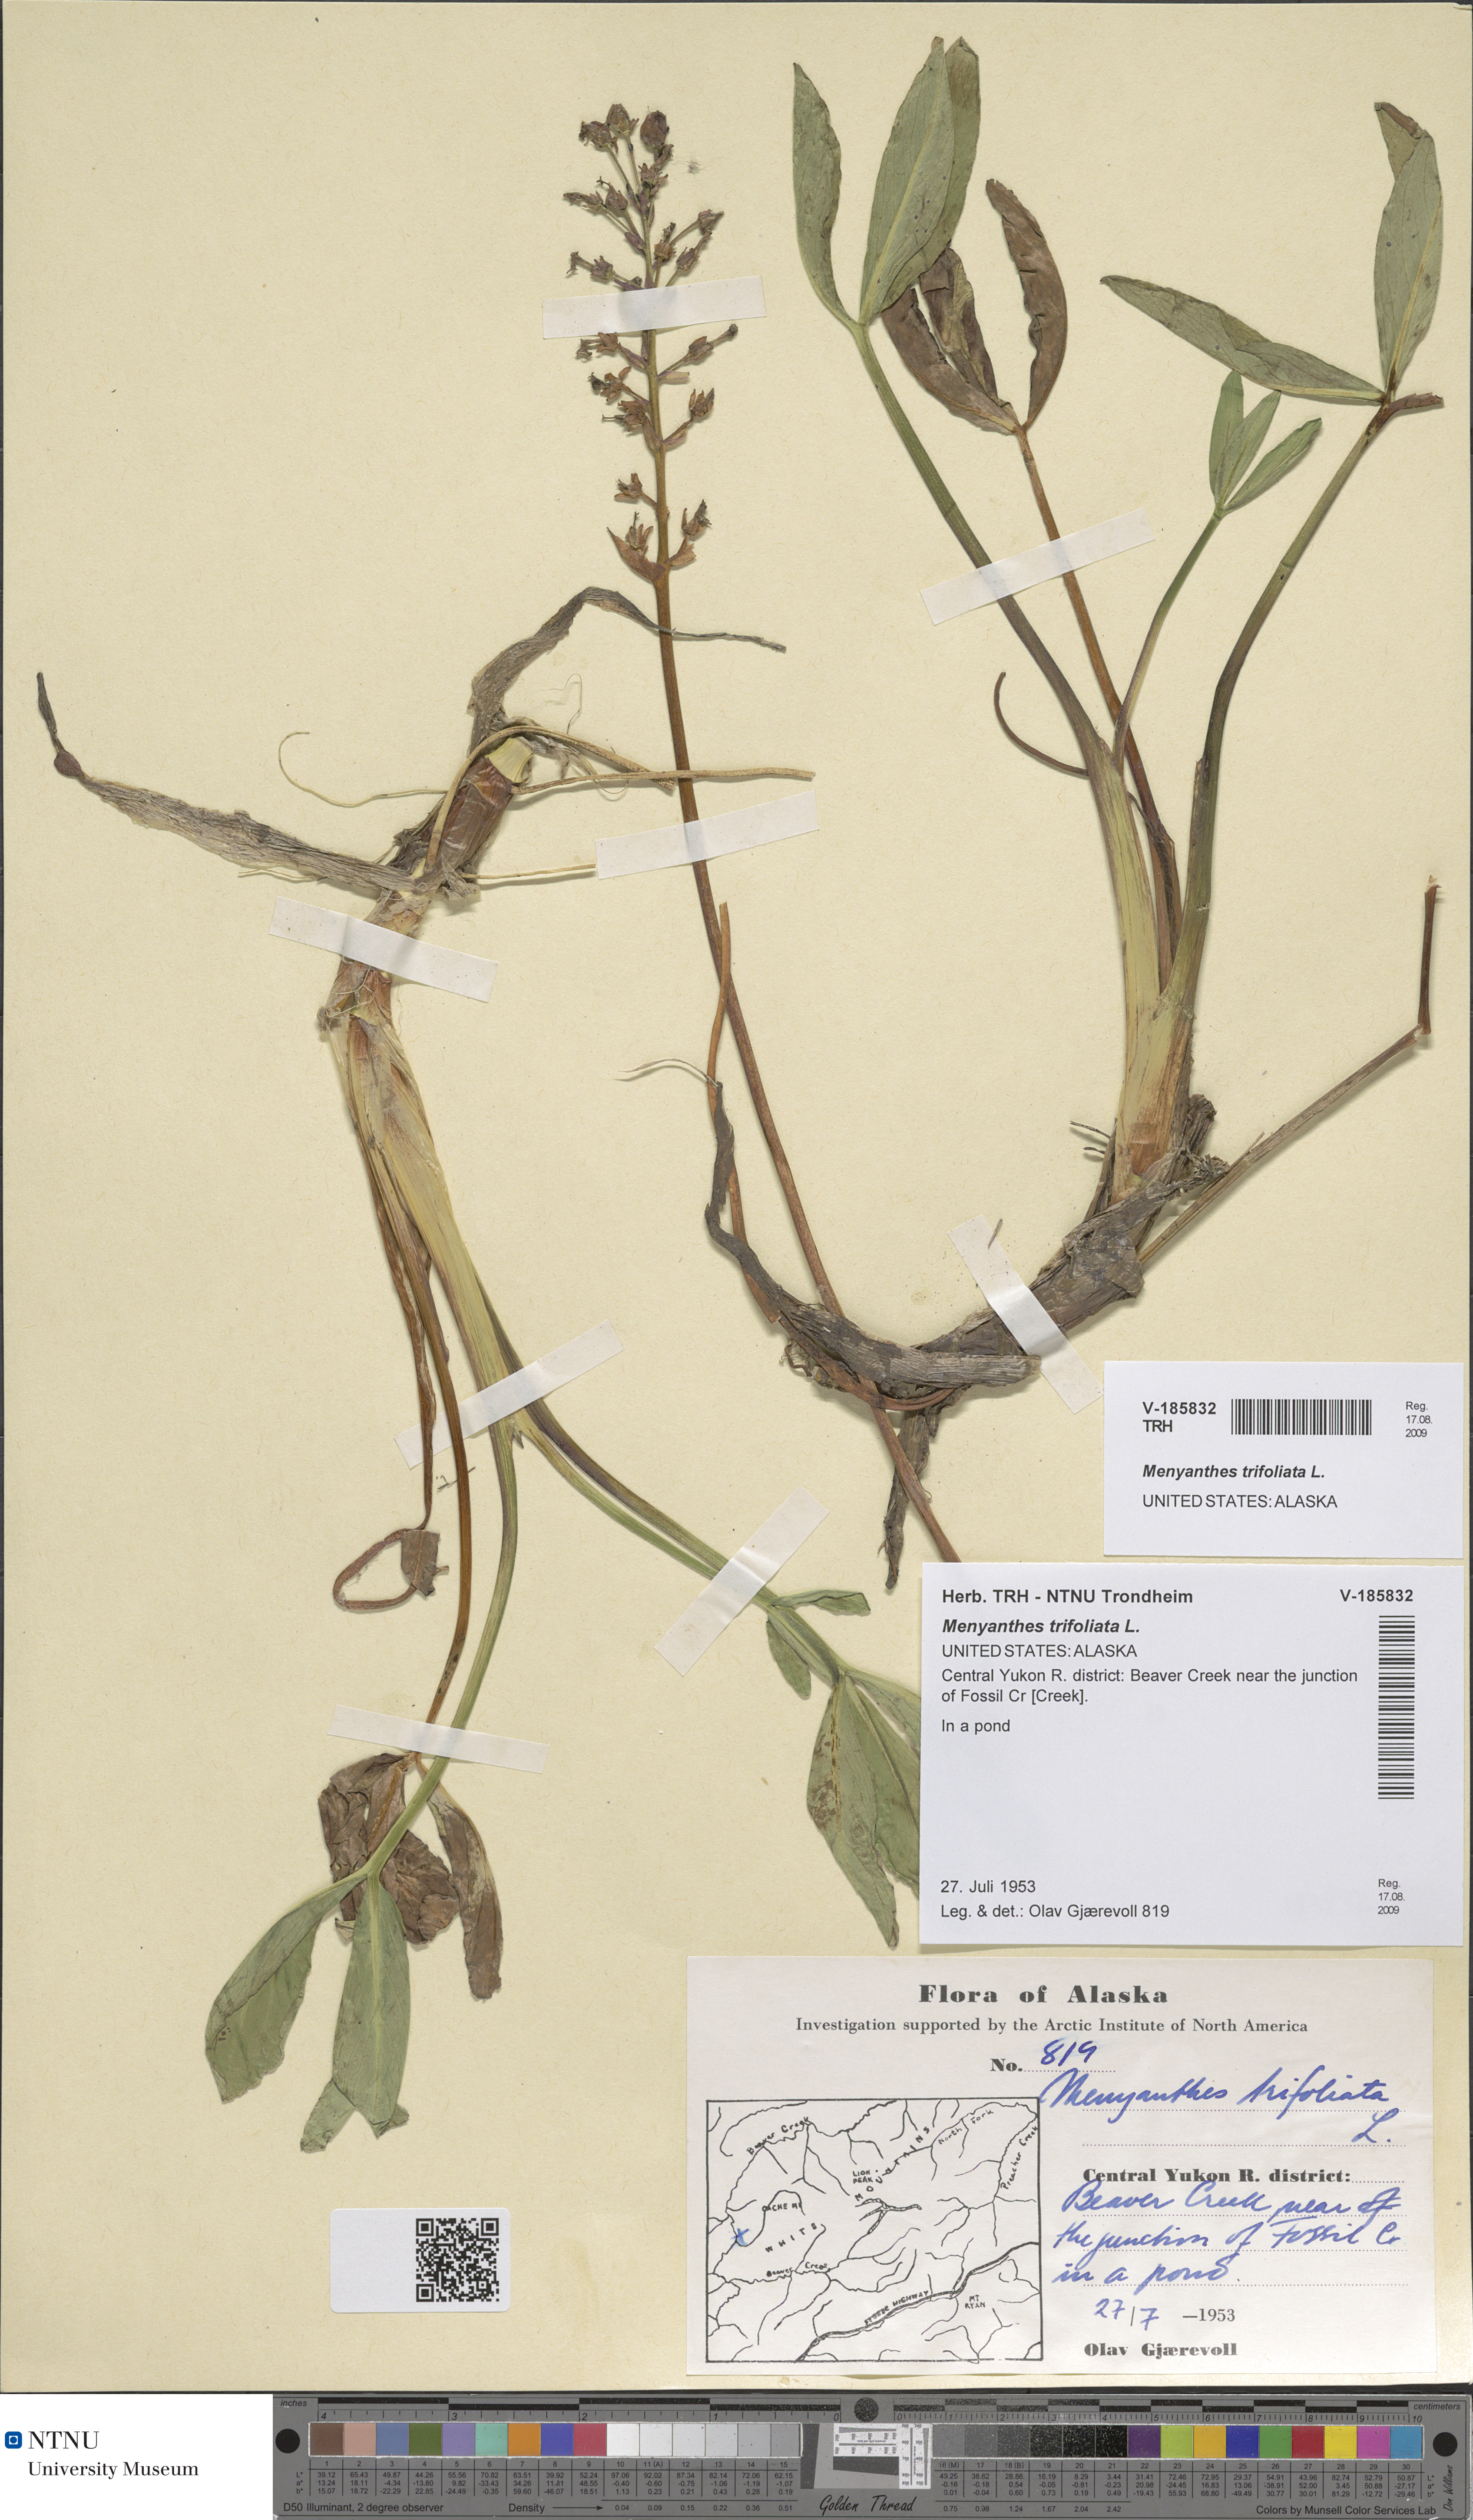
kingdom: Plantae
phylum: Tracheophyta
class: Magnoliopsida
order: Asterales
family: Menyanthaceae
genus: Menyanthes
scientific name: Menyanthes trifoliata
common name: Bogbean
